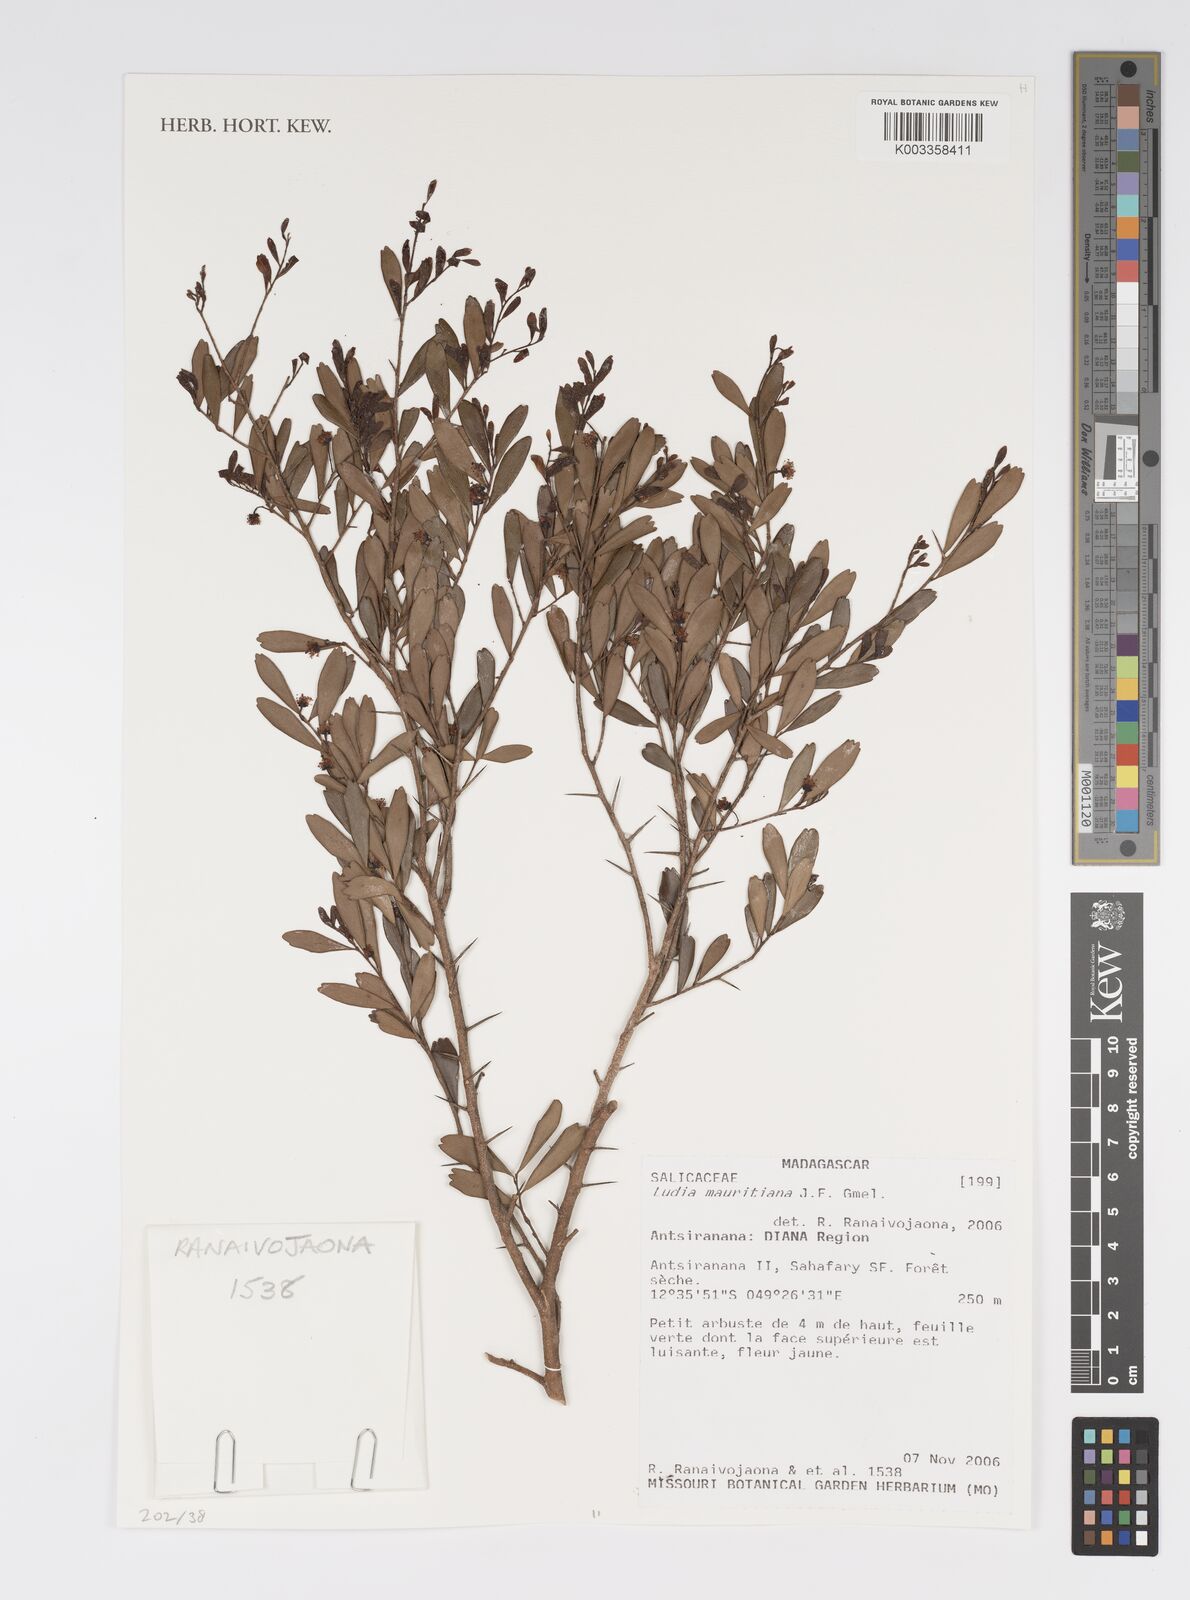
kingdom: Plantae
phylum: Tracheophyta
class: Magnoliopsida
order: Malpighiales
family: Salicaceae
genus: Ludia
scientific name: Ludia mauritiana
